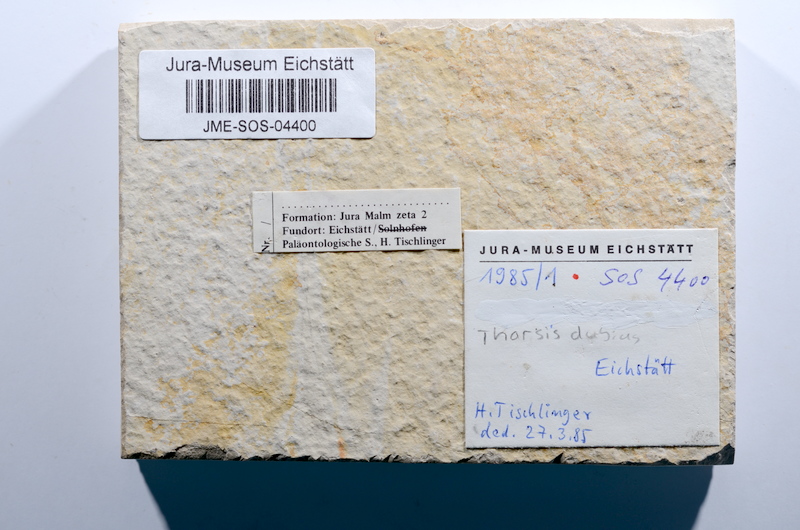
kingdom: Animalia
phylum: Chordata
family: Ascalaboidae
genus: Tharsis
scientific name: Tharsis dubius
